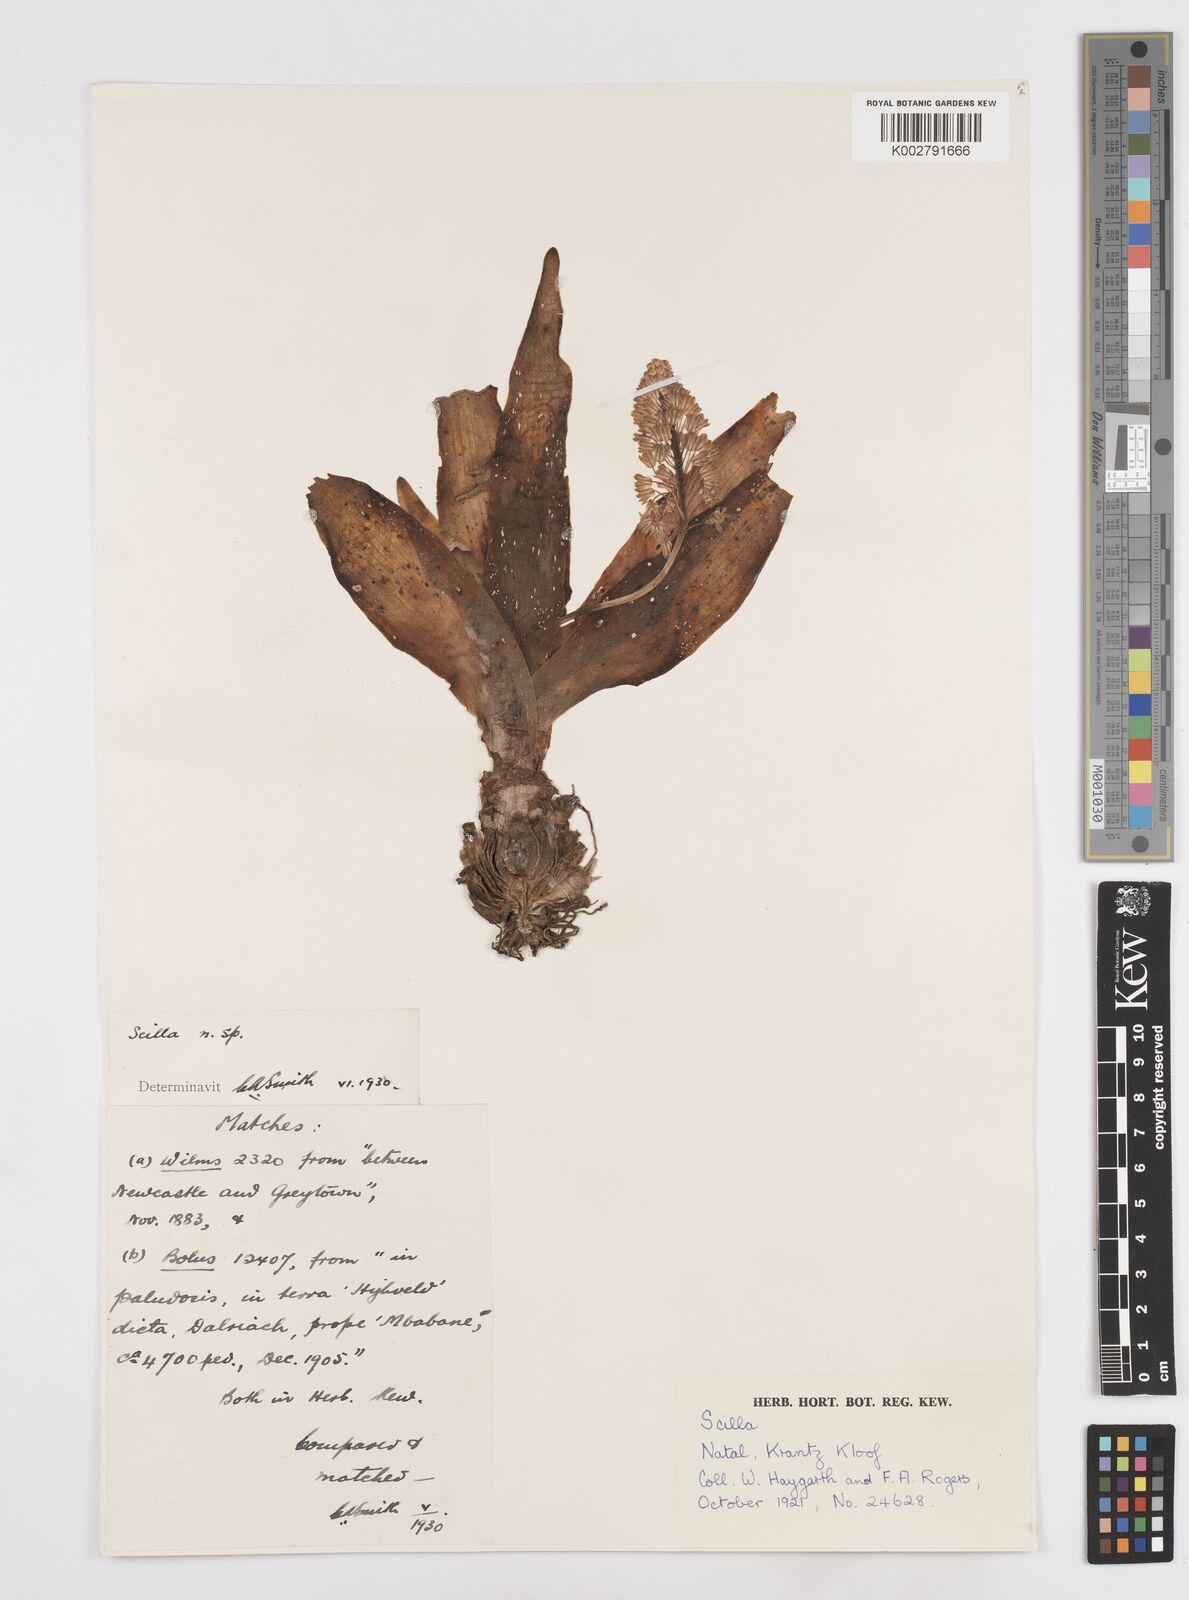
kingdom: Plantae
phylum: Tracheophyta
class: Liliopsida
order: Asparagales
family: Asparagaceae
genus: Scilla
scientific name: Scilla
